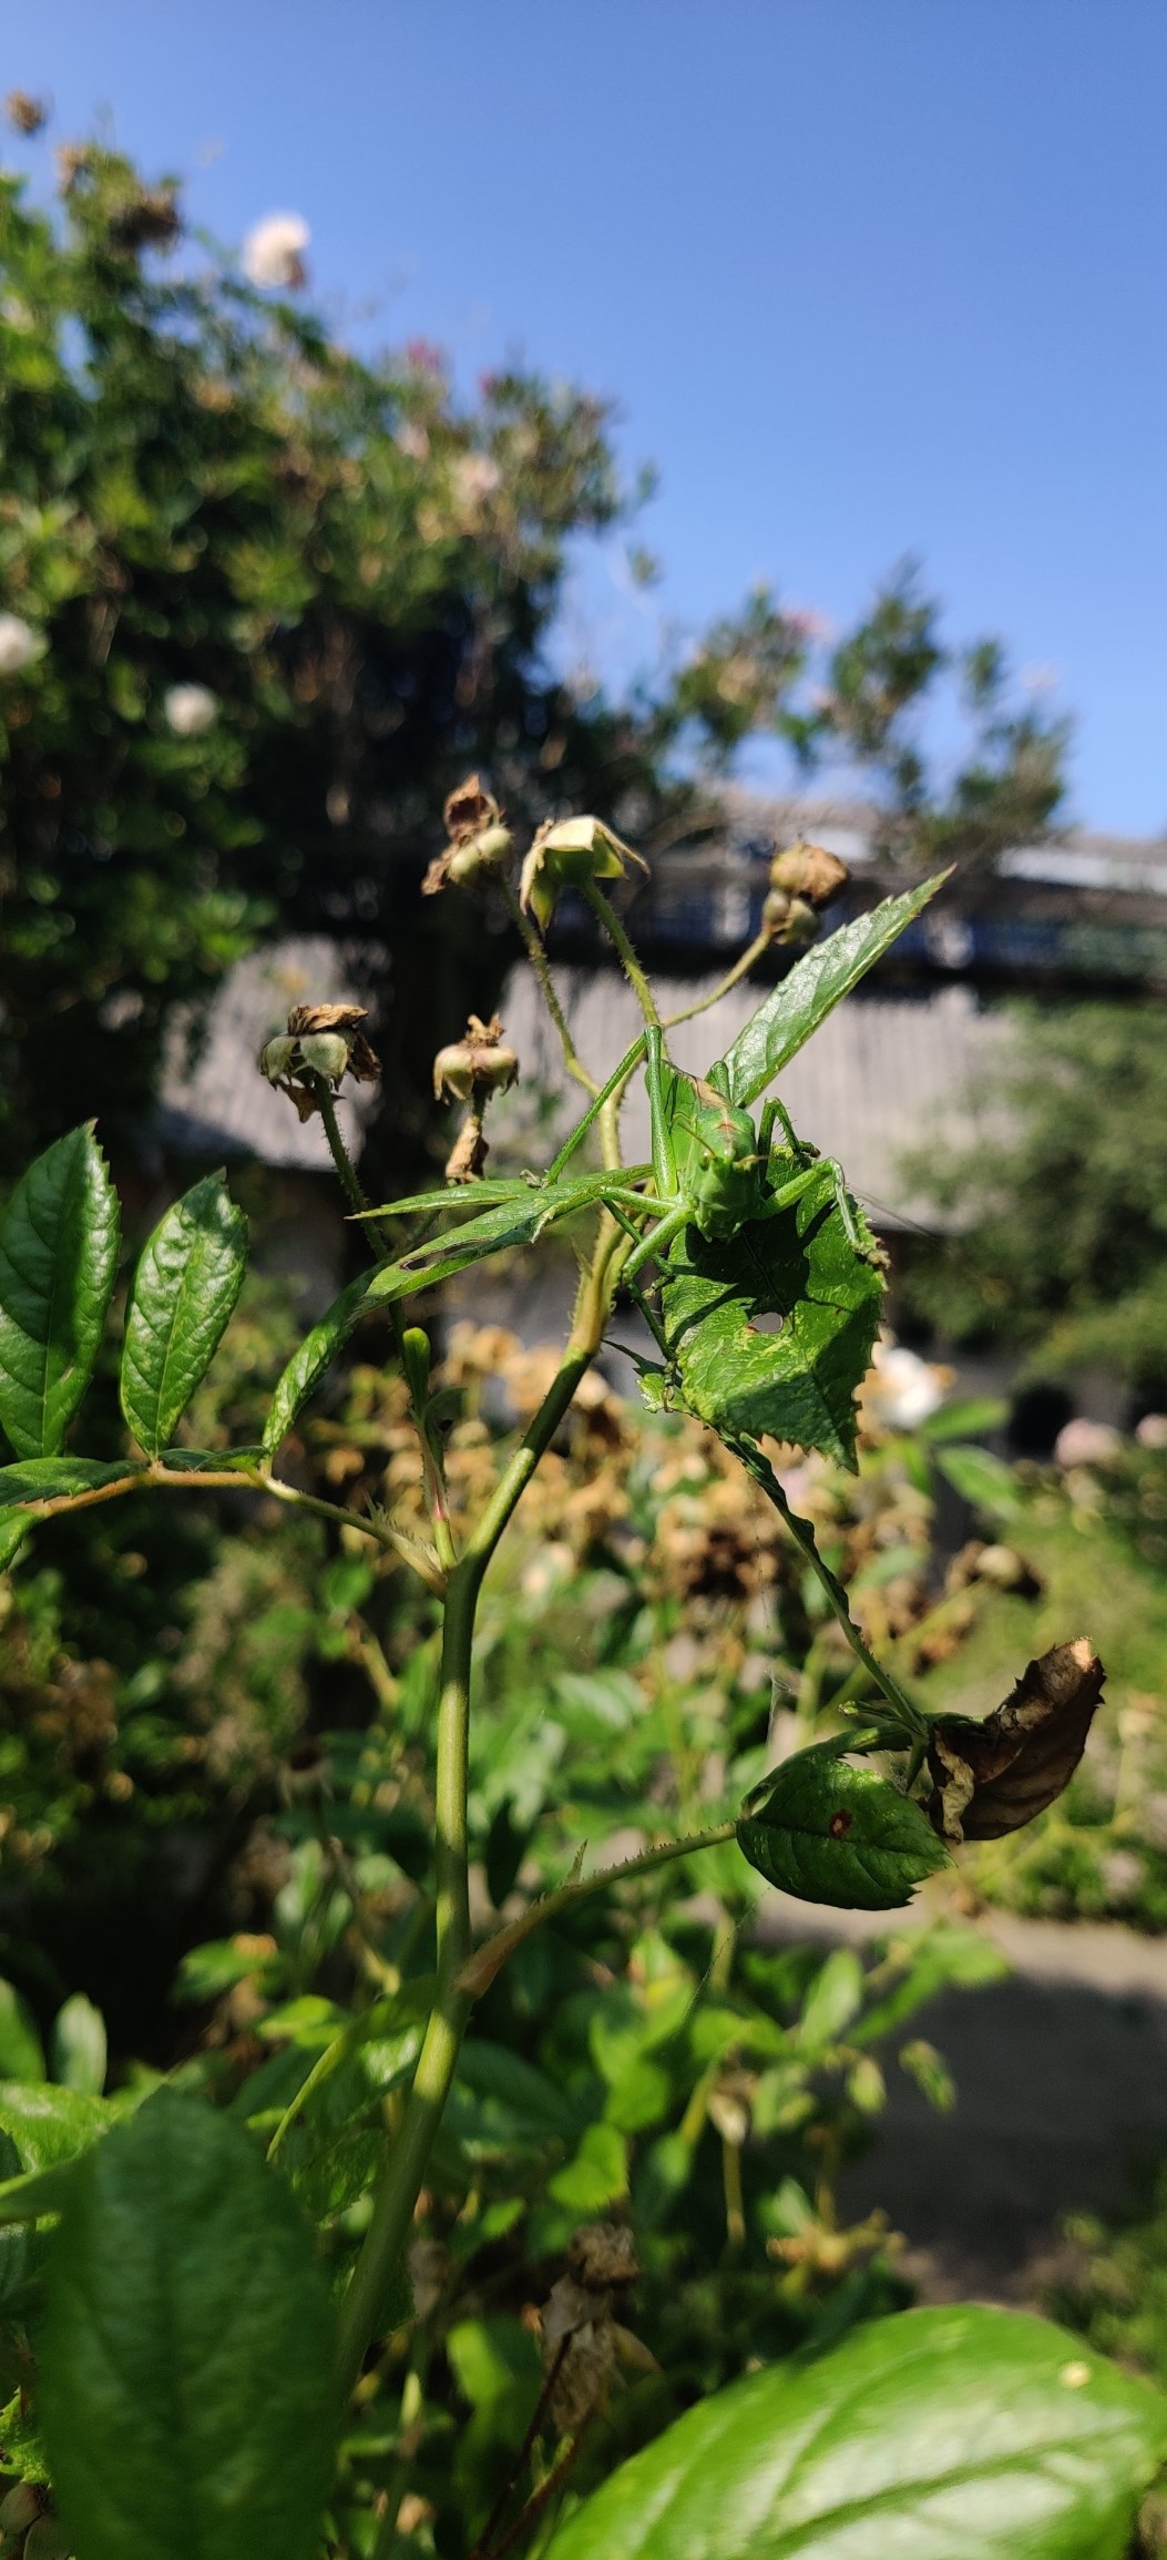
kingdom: Animalia
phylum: Arthropoda
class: Insecta
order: Orthoptera
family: Tettigoniidae
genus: Tettigonia
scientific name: Tettigonia viridissima
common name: Stor grøn løvgræshoppe
